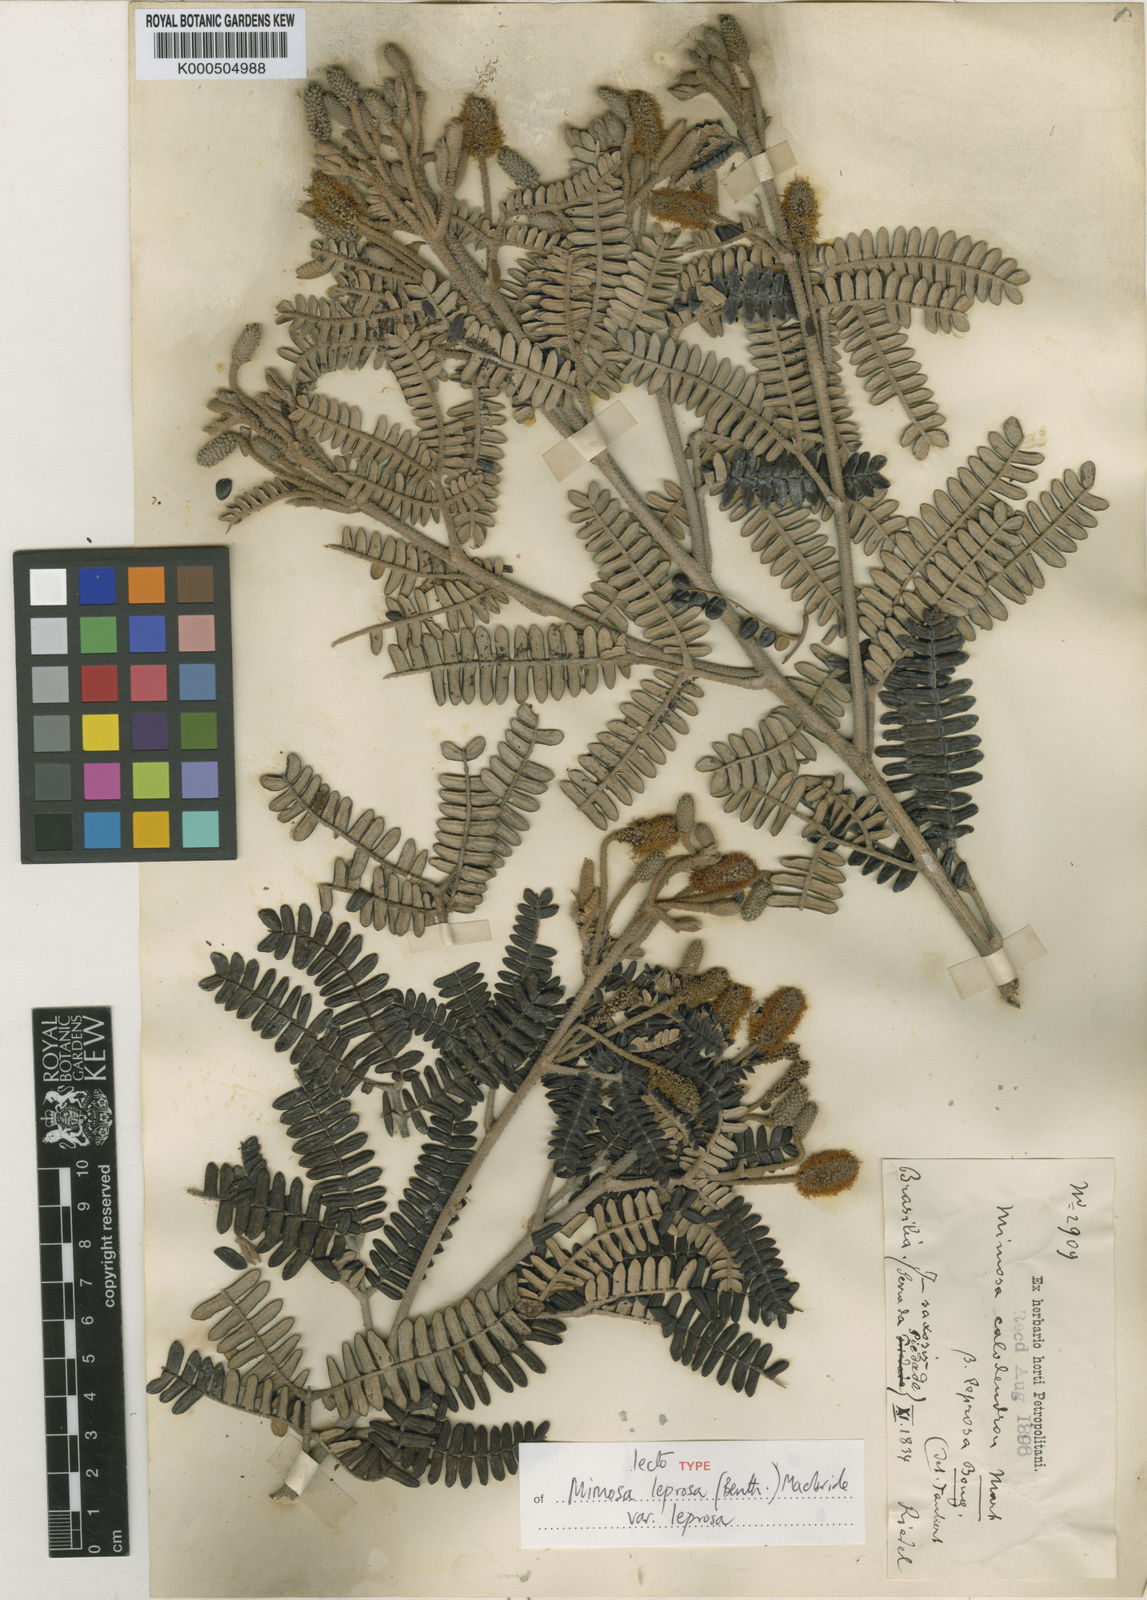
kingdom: Plantae
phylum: Tracheophyta
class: Magnoliopsida
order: Fabales
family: Fabaceae
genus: Mimosa
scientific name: Mimosa leprosa
